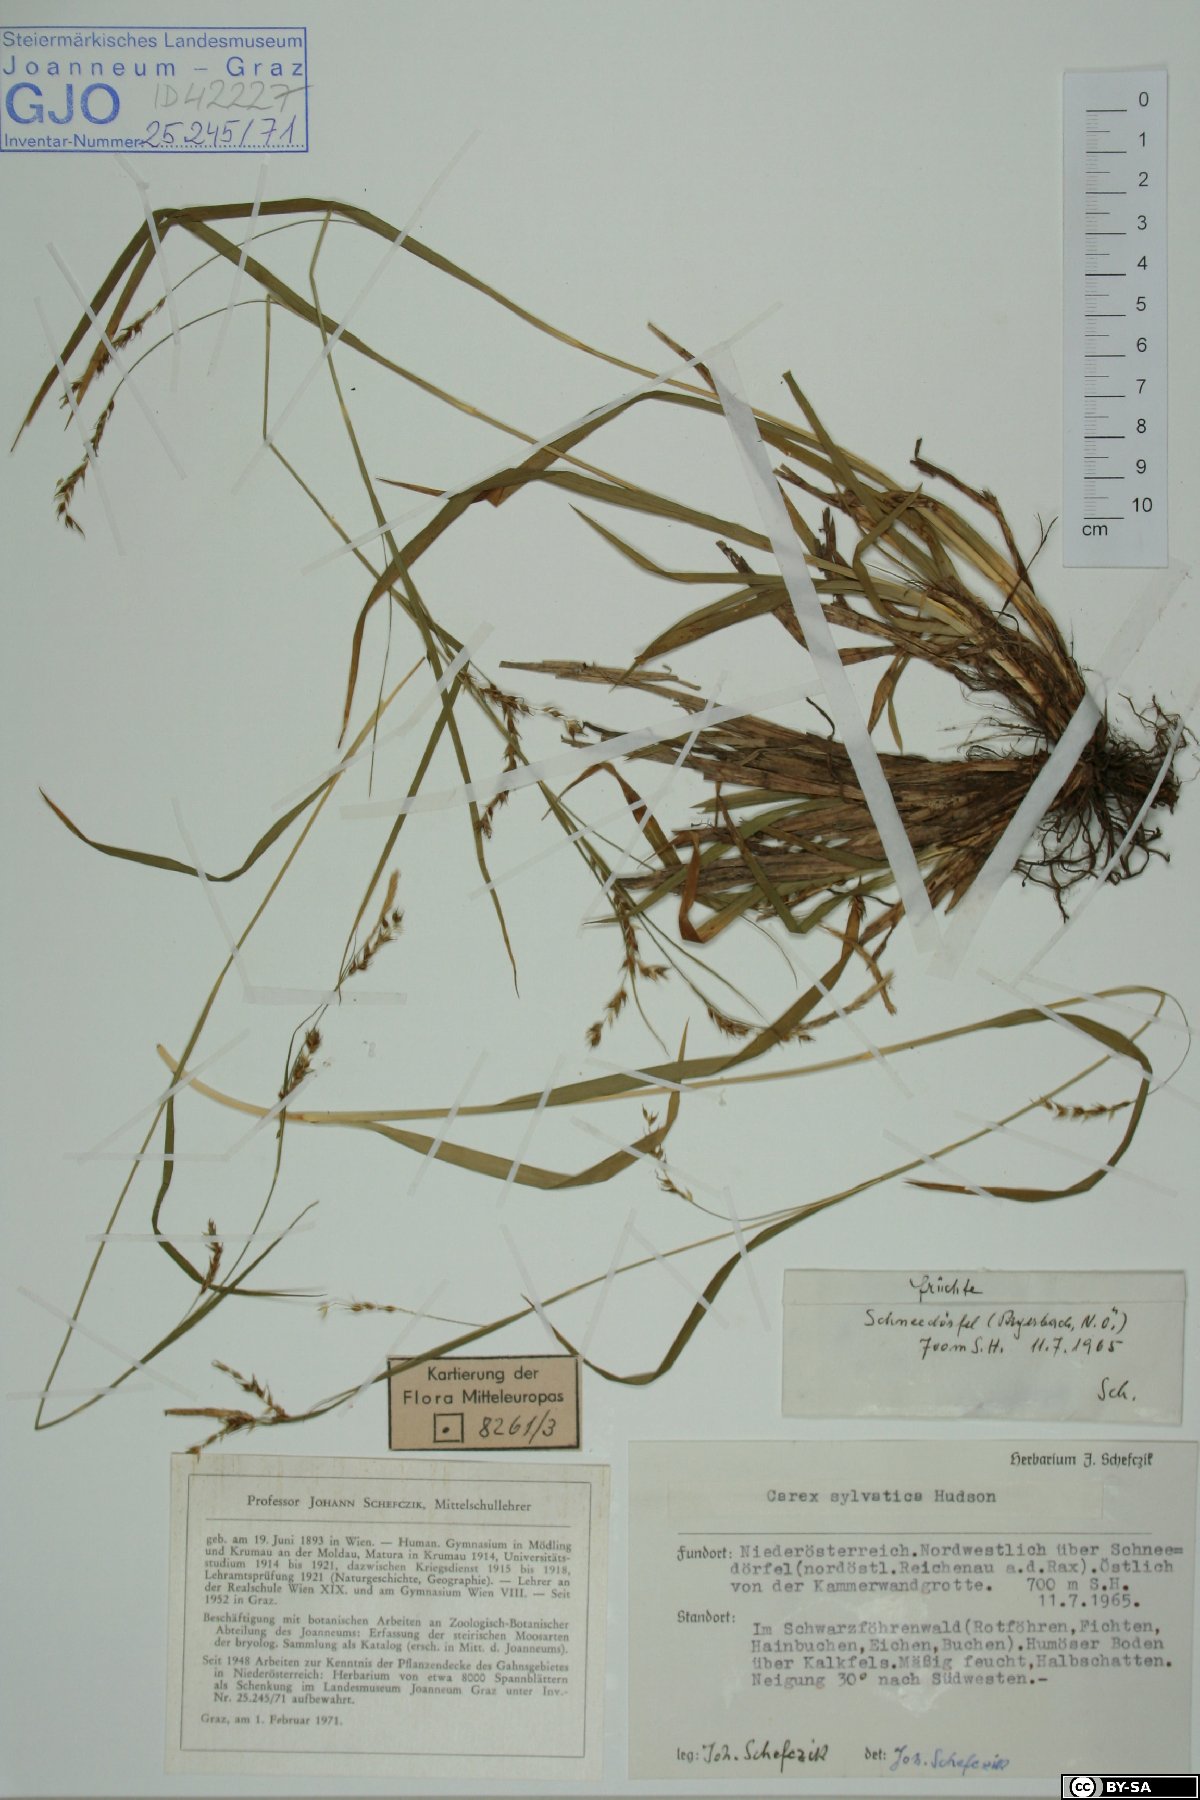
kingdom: Plantae
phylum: Tracheophyta
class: Liliopsida
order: Poales
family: Cyperaceae
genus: Carex
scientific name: Carex sylvatica
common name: Wood-sedge
